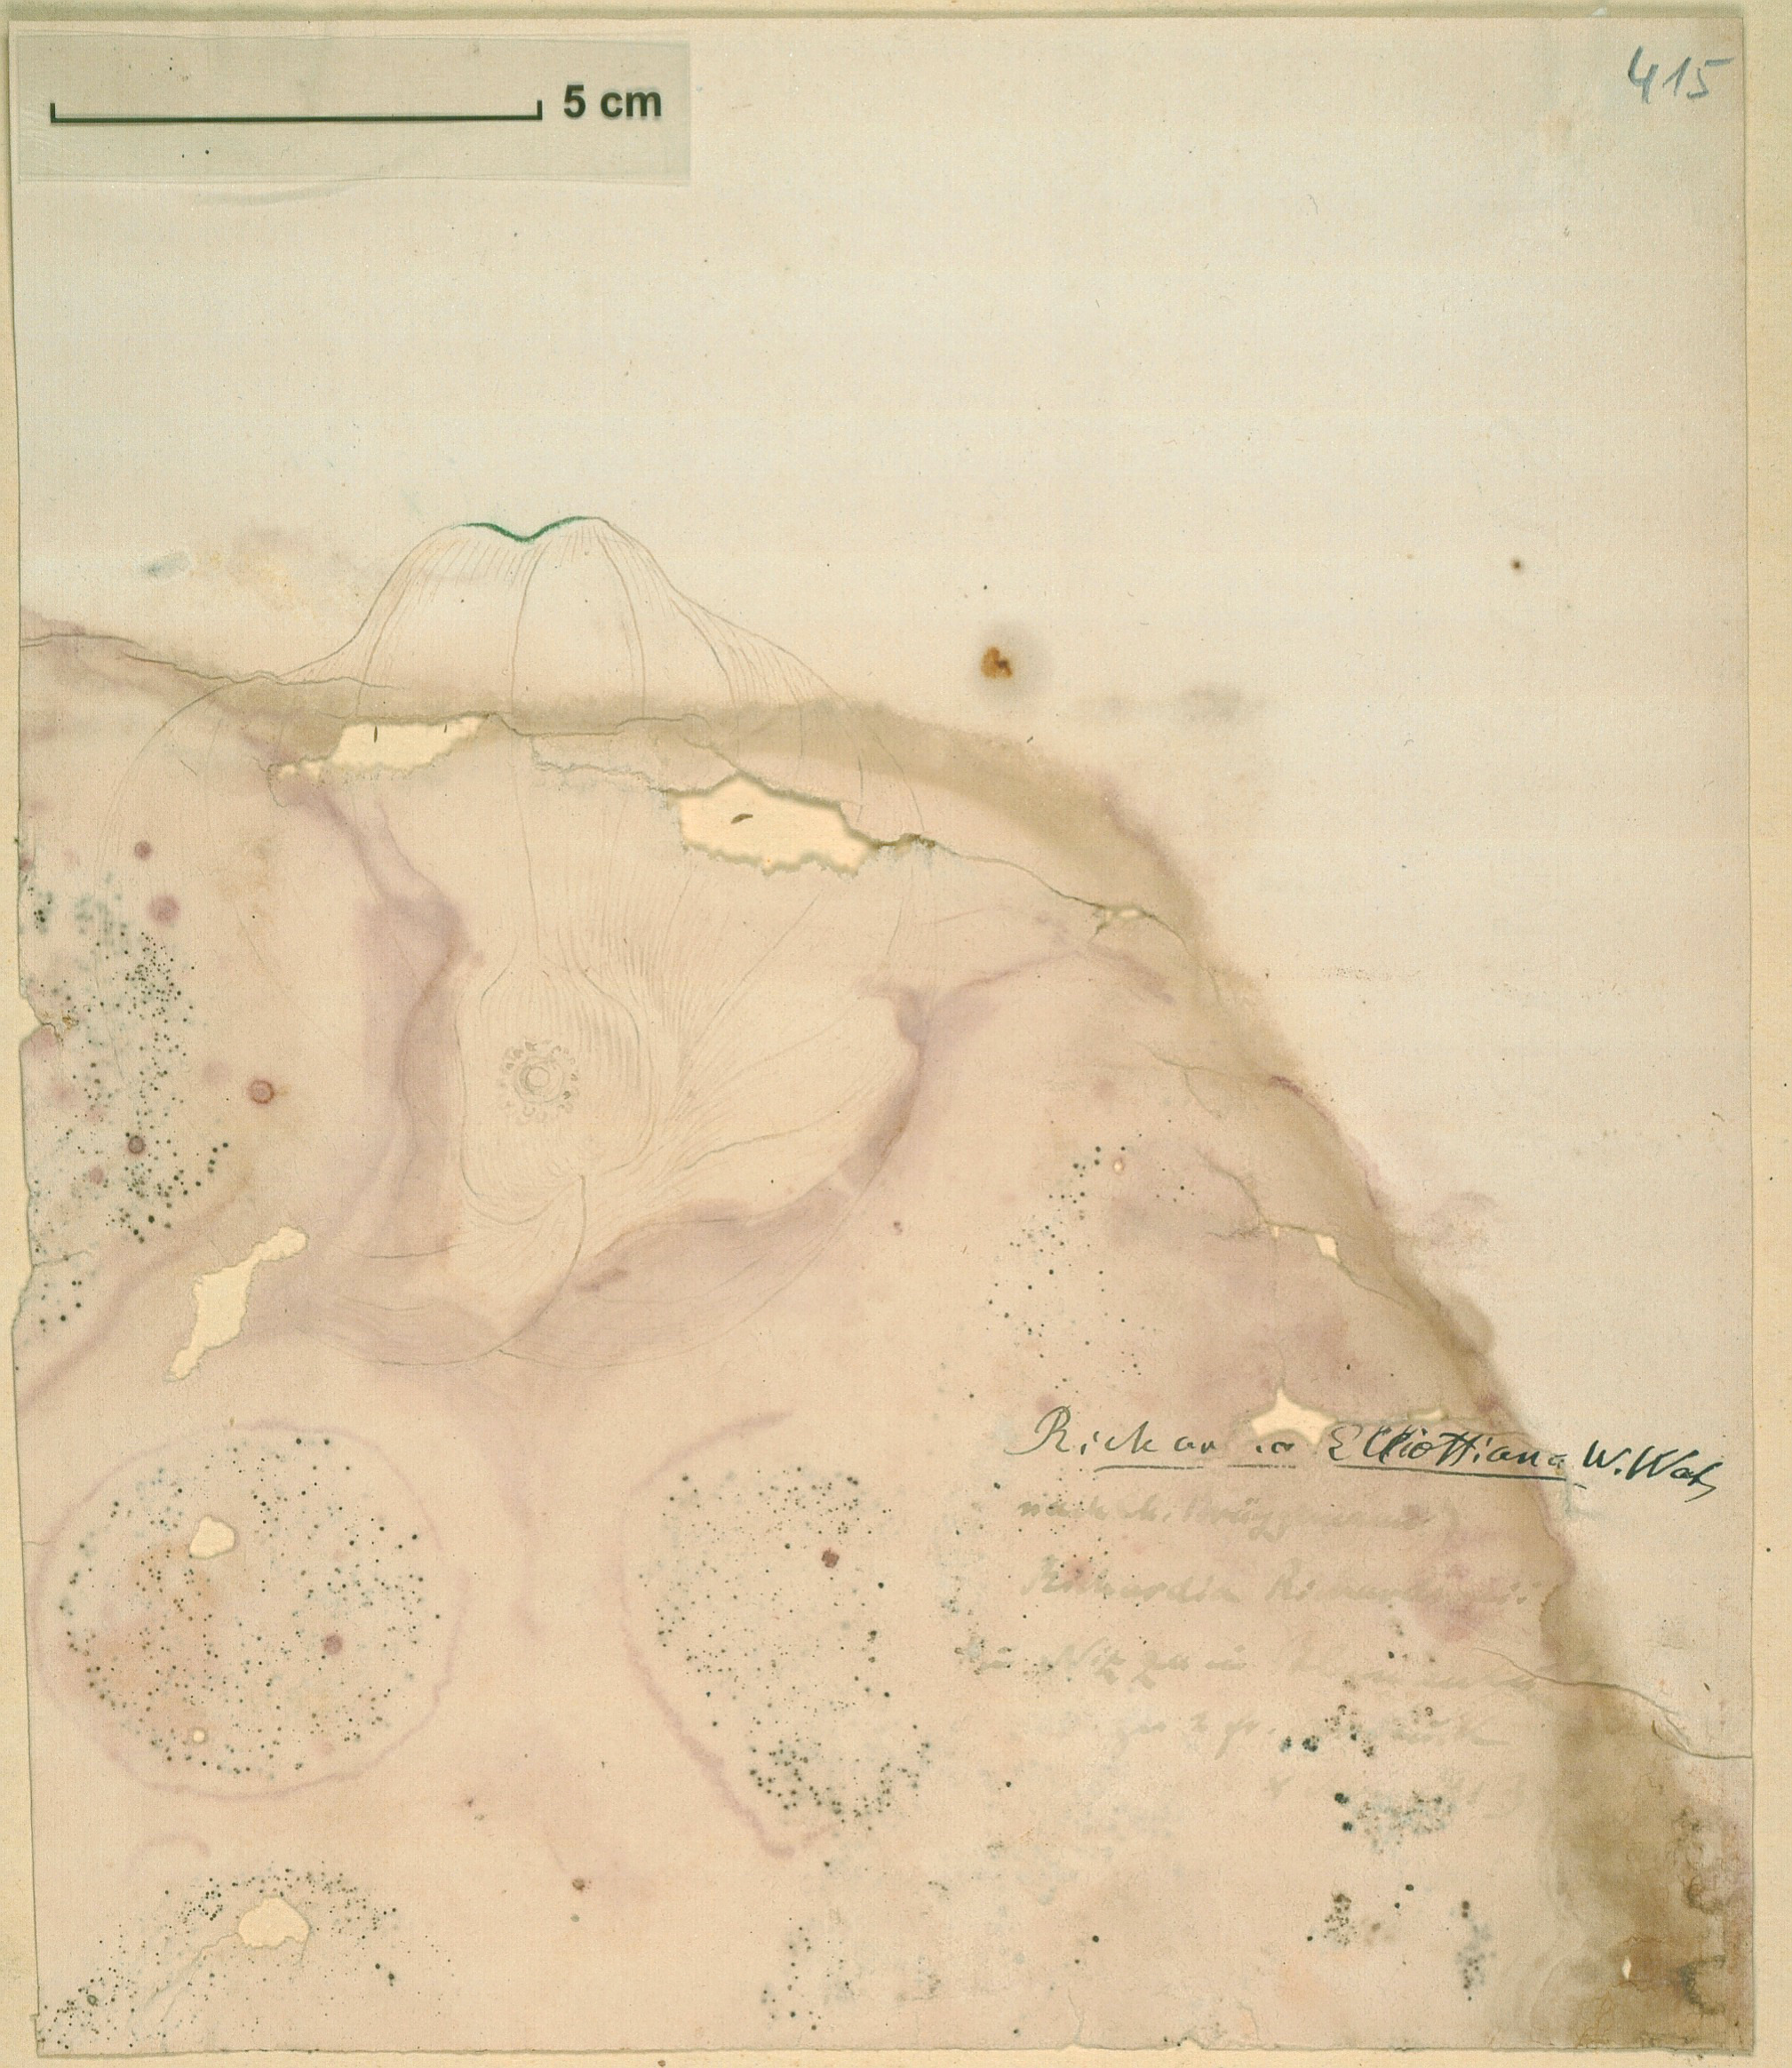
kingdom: Plantae
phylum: Tracheophyta
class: Liliopsida
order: Alismatales
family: Araceae
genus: Zantedeschia
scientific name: Zantedeschia elliottiana
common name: Yellow calla
